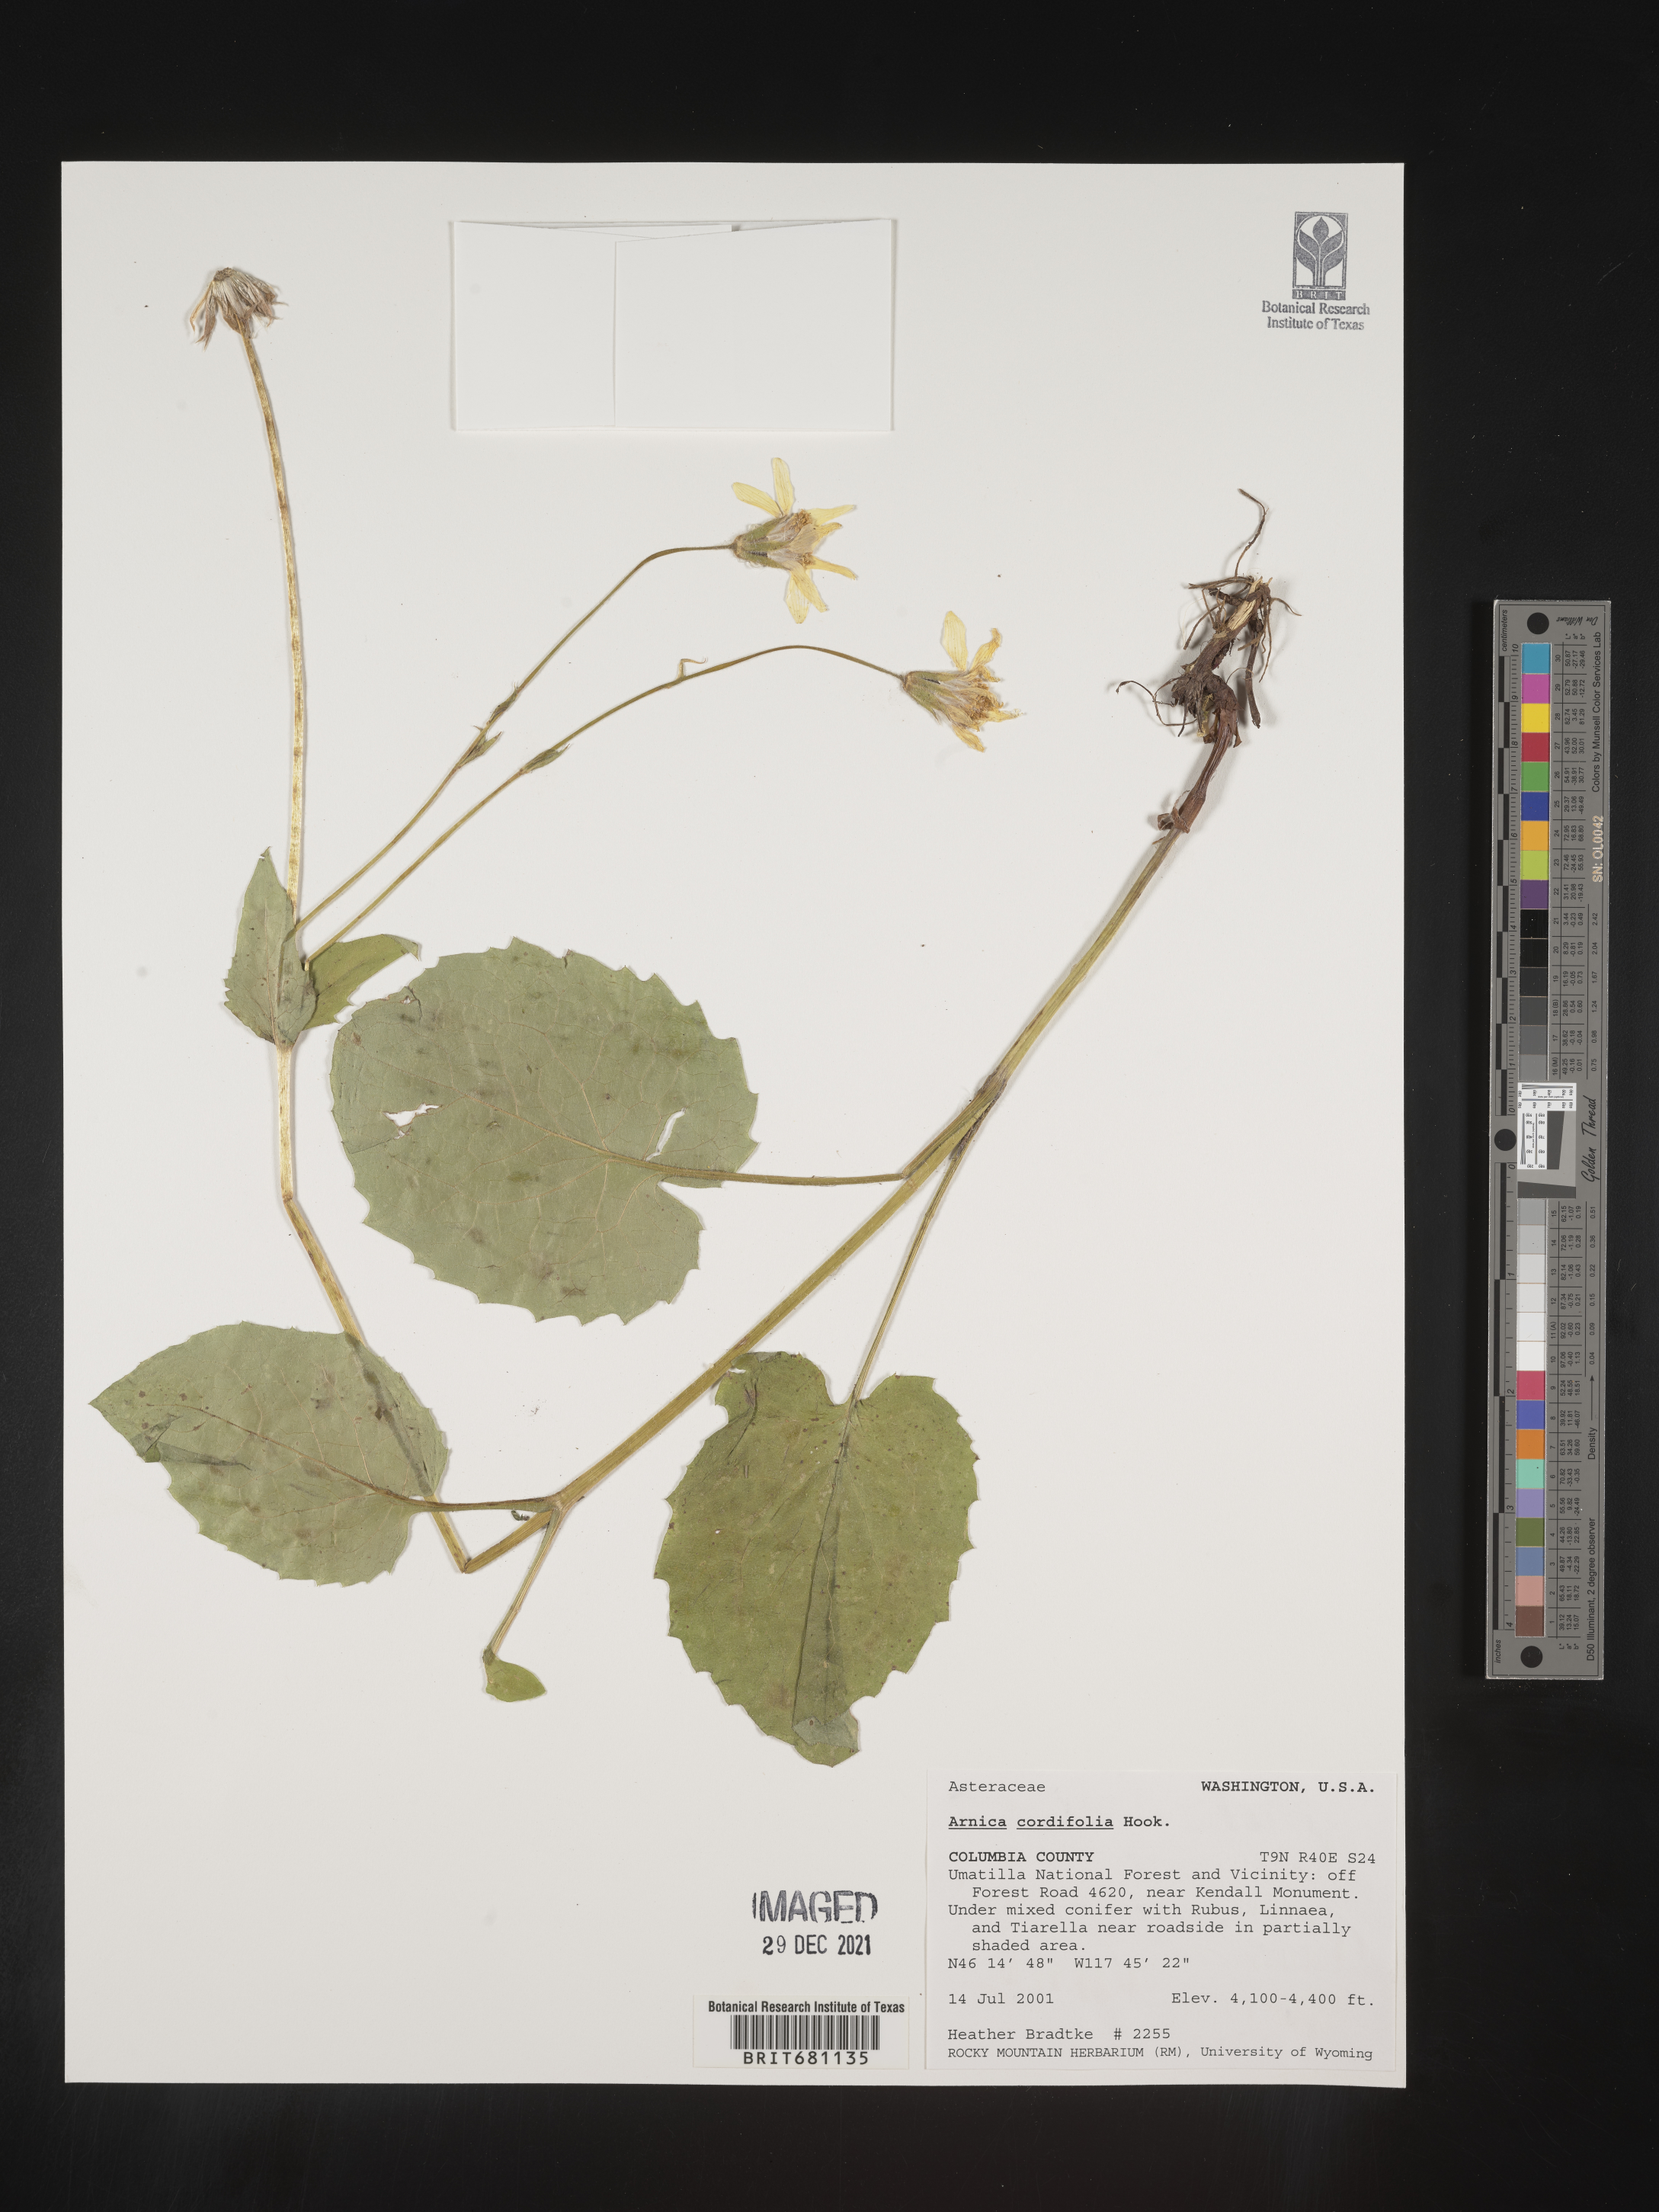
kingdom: Plantae
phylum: Tracheophyta
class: Magnoliopsida
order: Asterales
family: Asteraceae
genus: Arnica
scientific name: Arnica cordifolia
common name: Heart-leaf arnica
